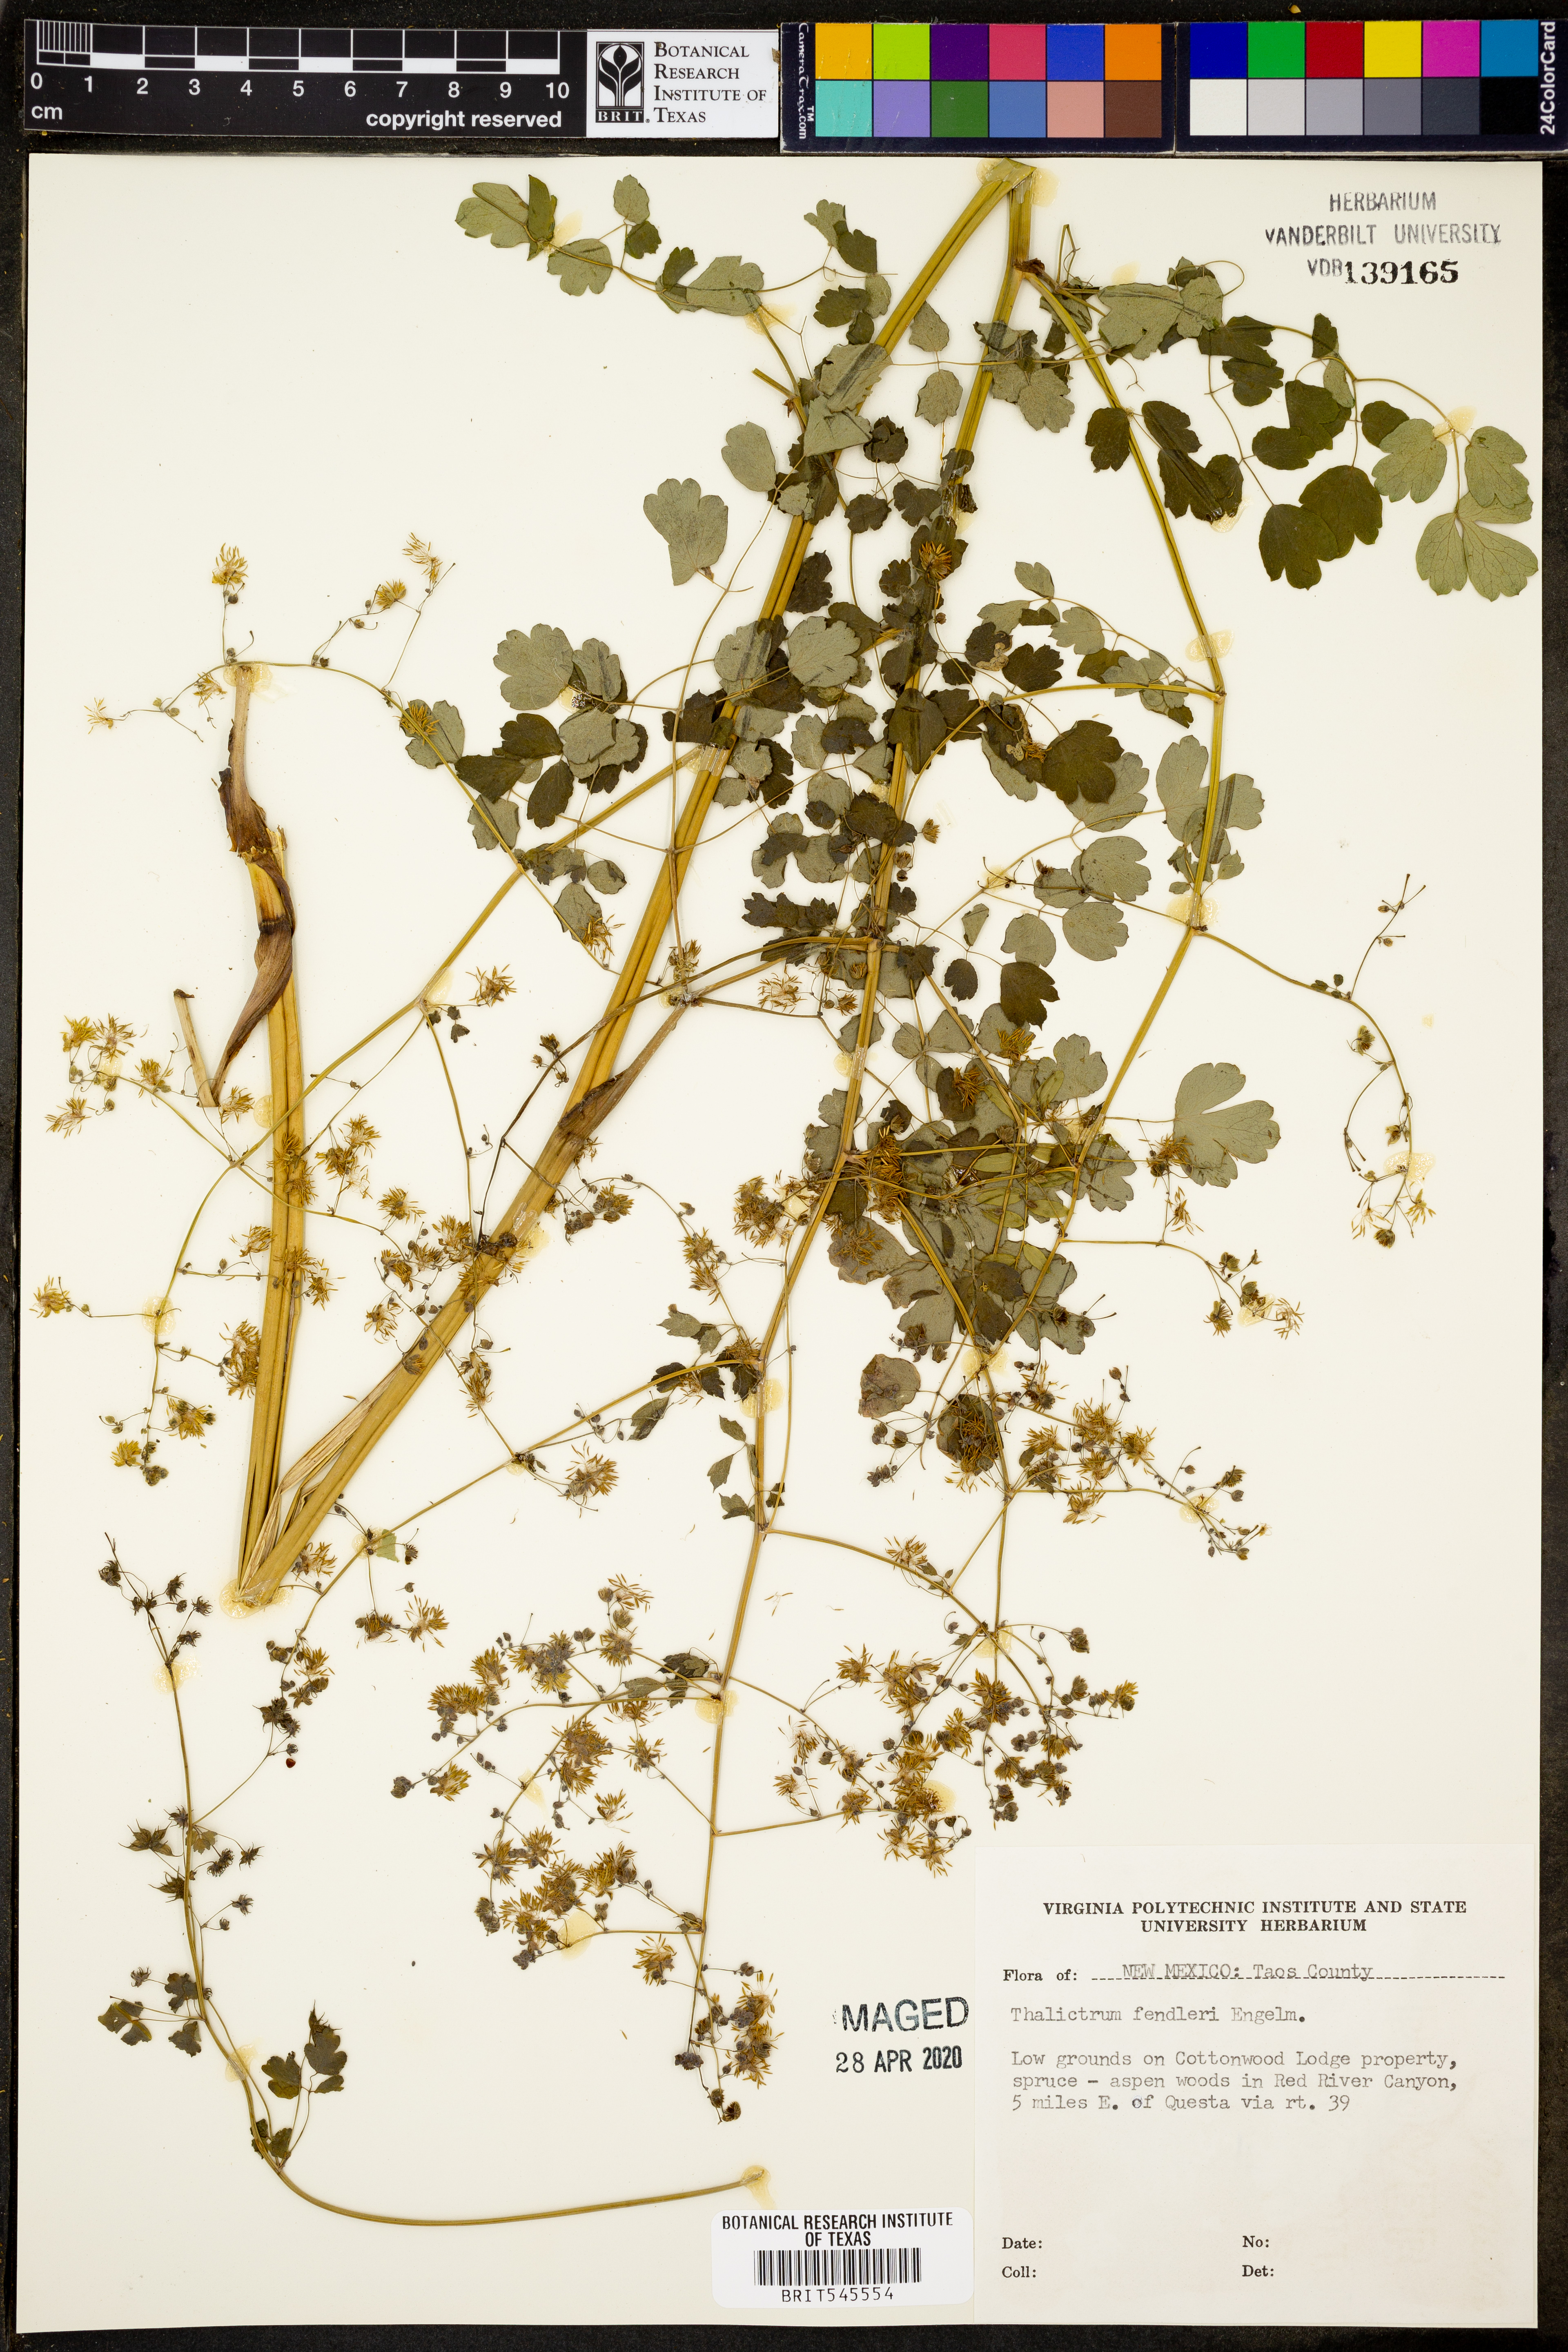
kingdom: Plantae
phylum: Tracheophyta
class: Magnoliopsida
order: Ranunculales
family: Ranunculaceae
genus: Thalictrum
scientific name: Thalictrum fendleri
